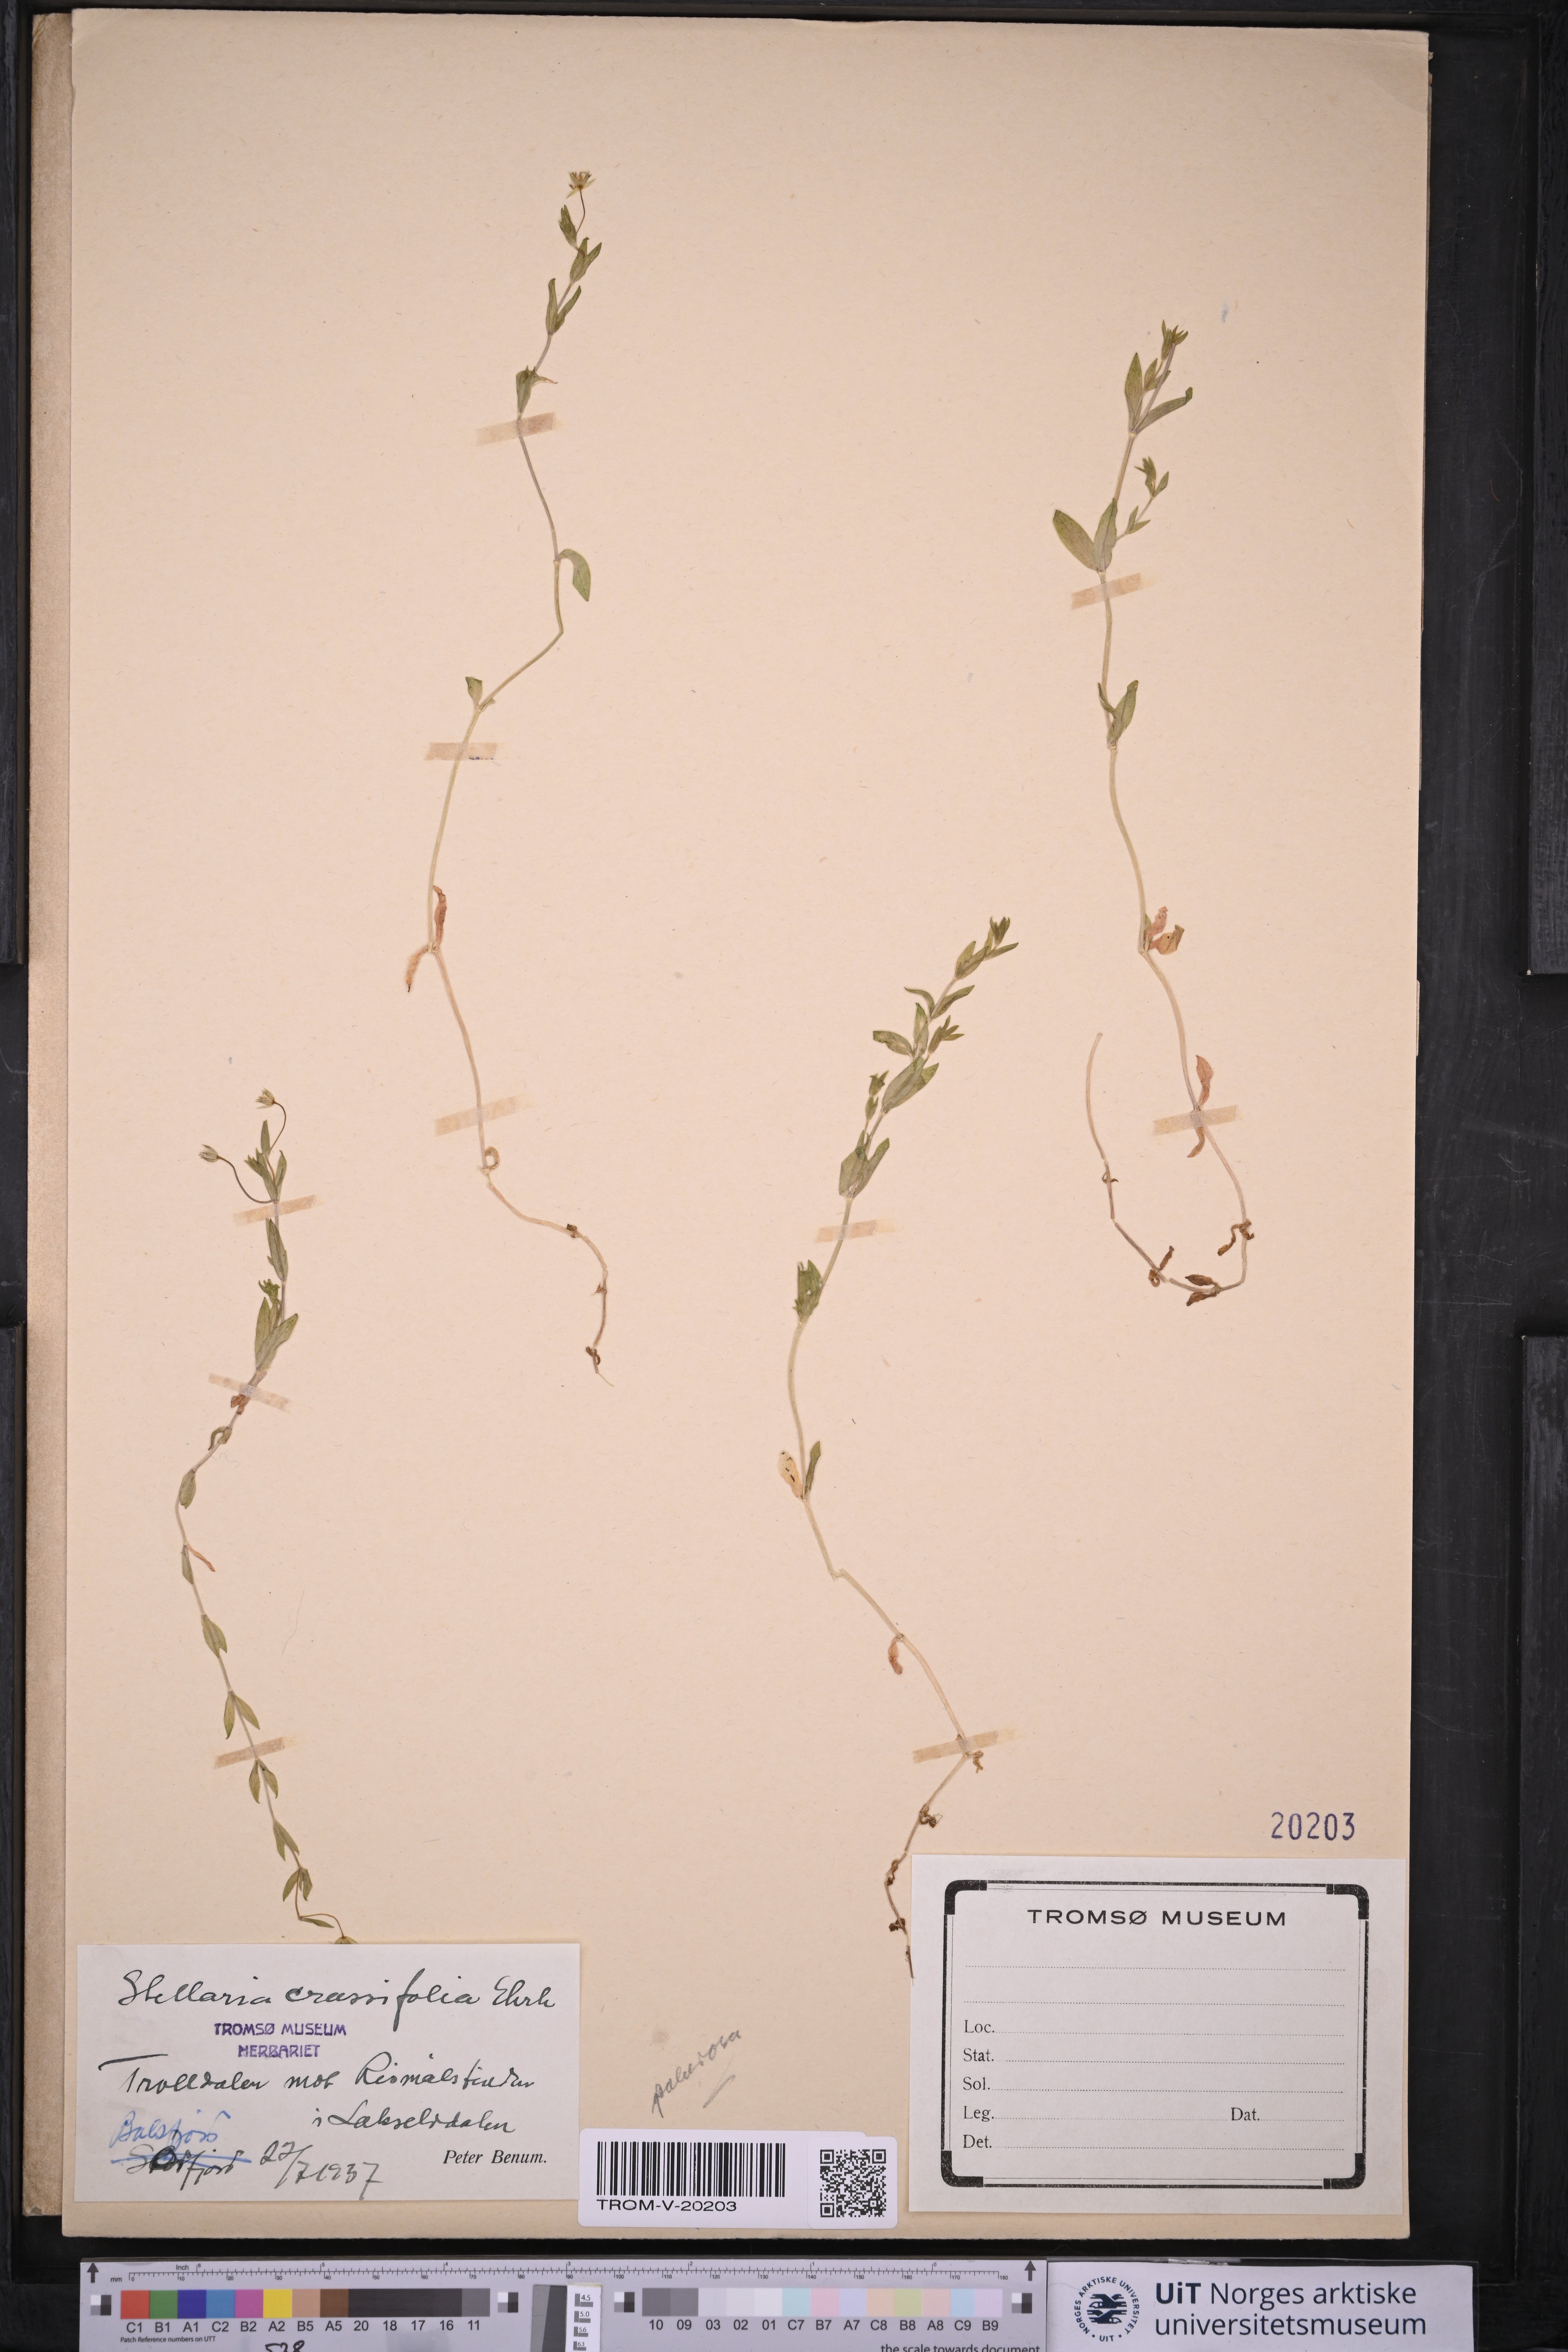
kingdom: Plantae
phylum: Tracheophyta
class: Magnoliopsida
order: Caryophyllales
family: Caryophyllaceae
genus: Stellaria
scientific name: Stellaria crassifolia
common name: Fleshy starwort
